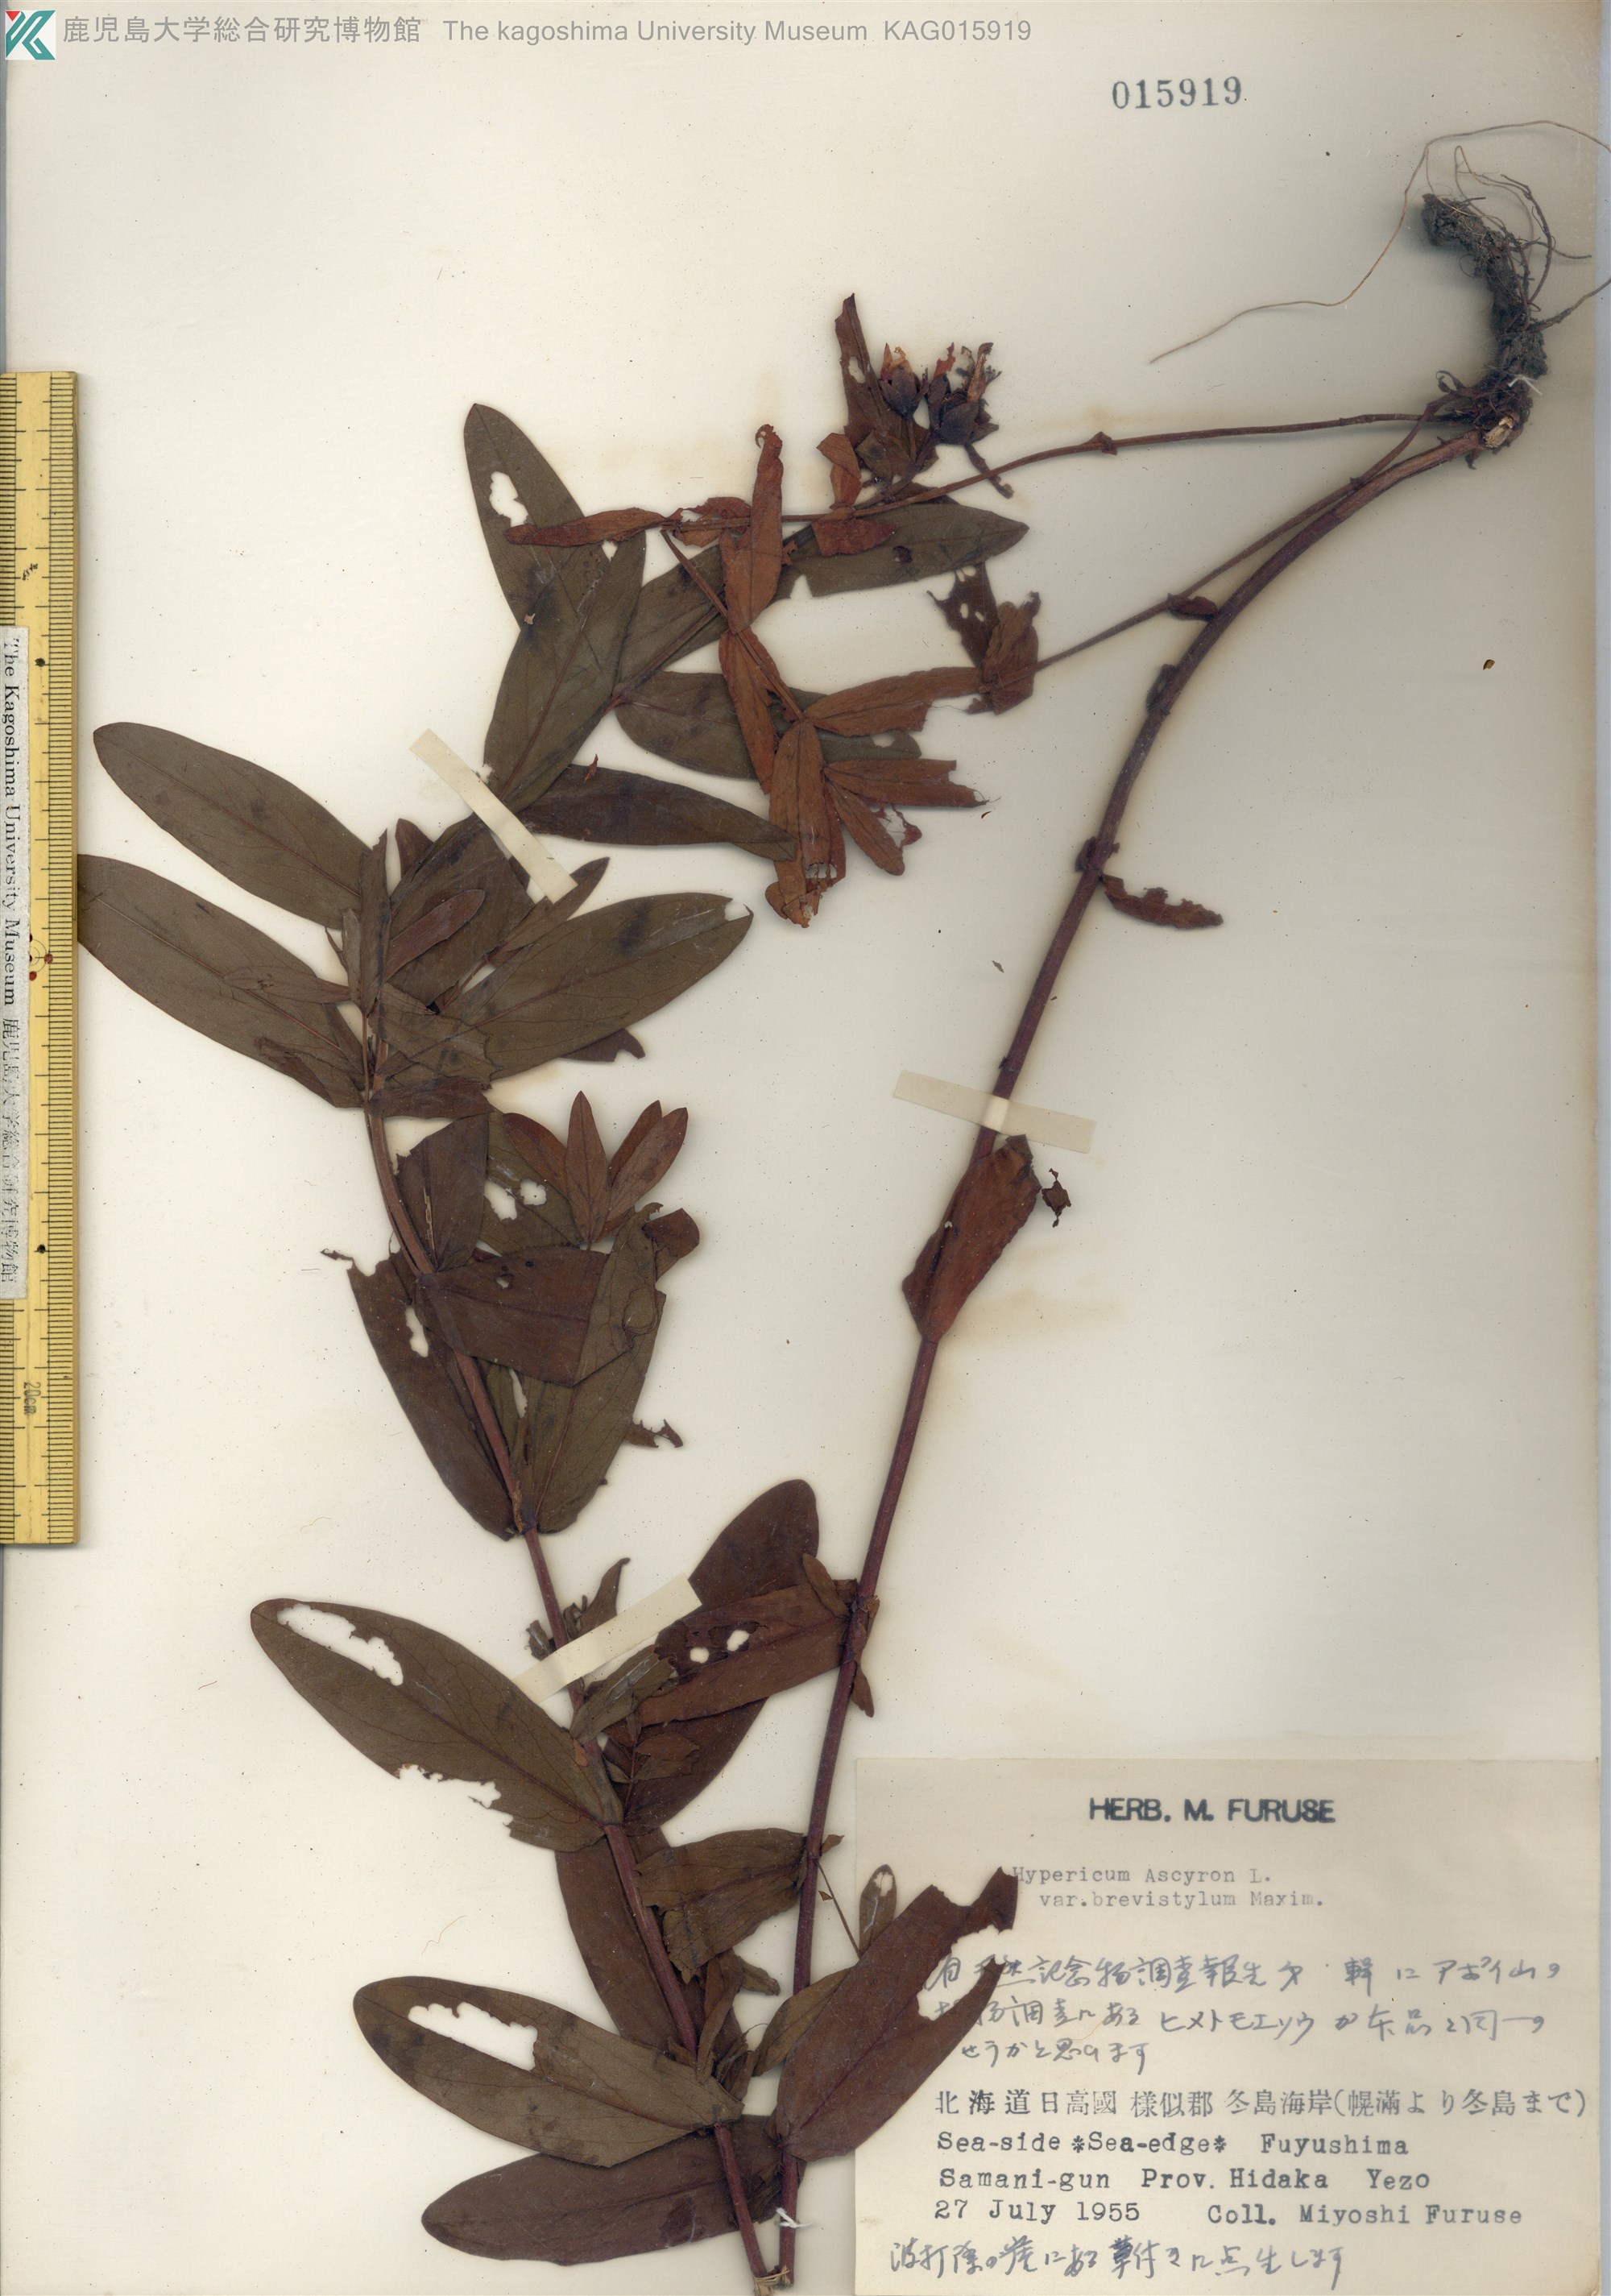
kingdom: Plantae
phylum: Tracheophyta
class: Magnoliopsida
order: Malpighiales
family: Hypericaceae
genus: Hypericum
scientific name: Hypericum ascyron
